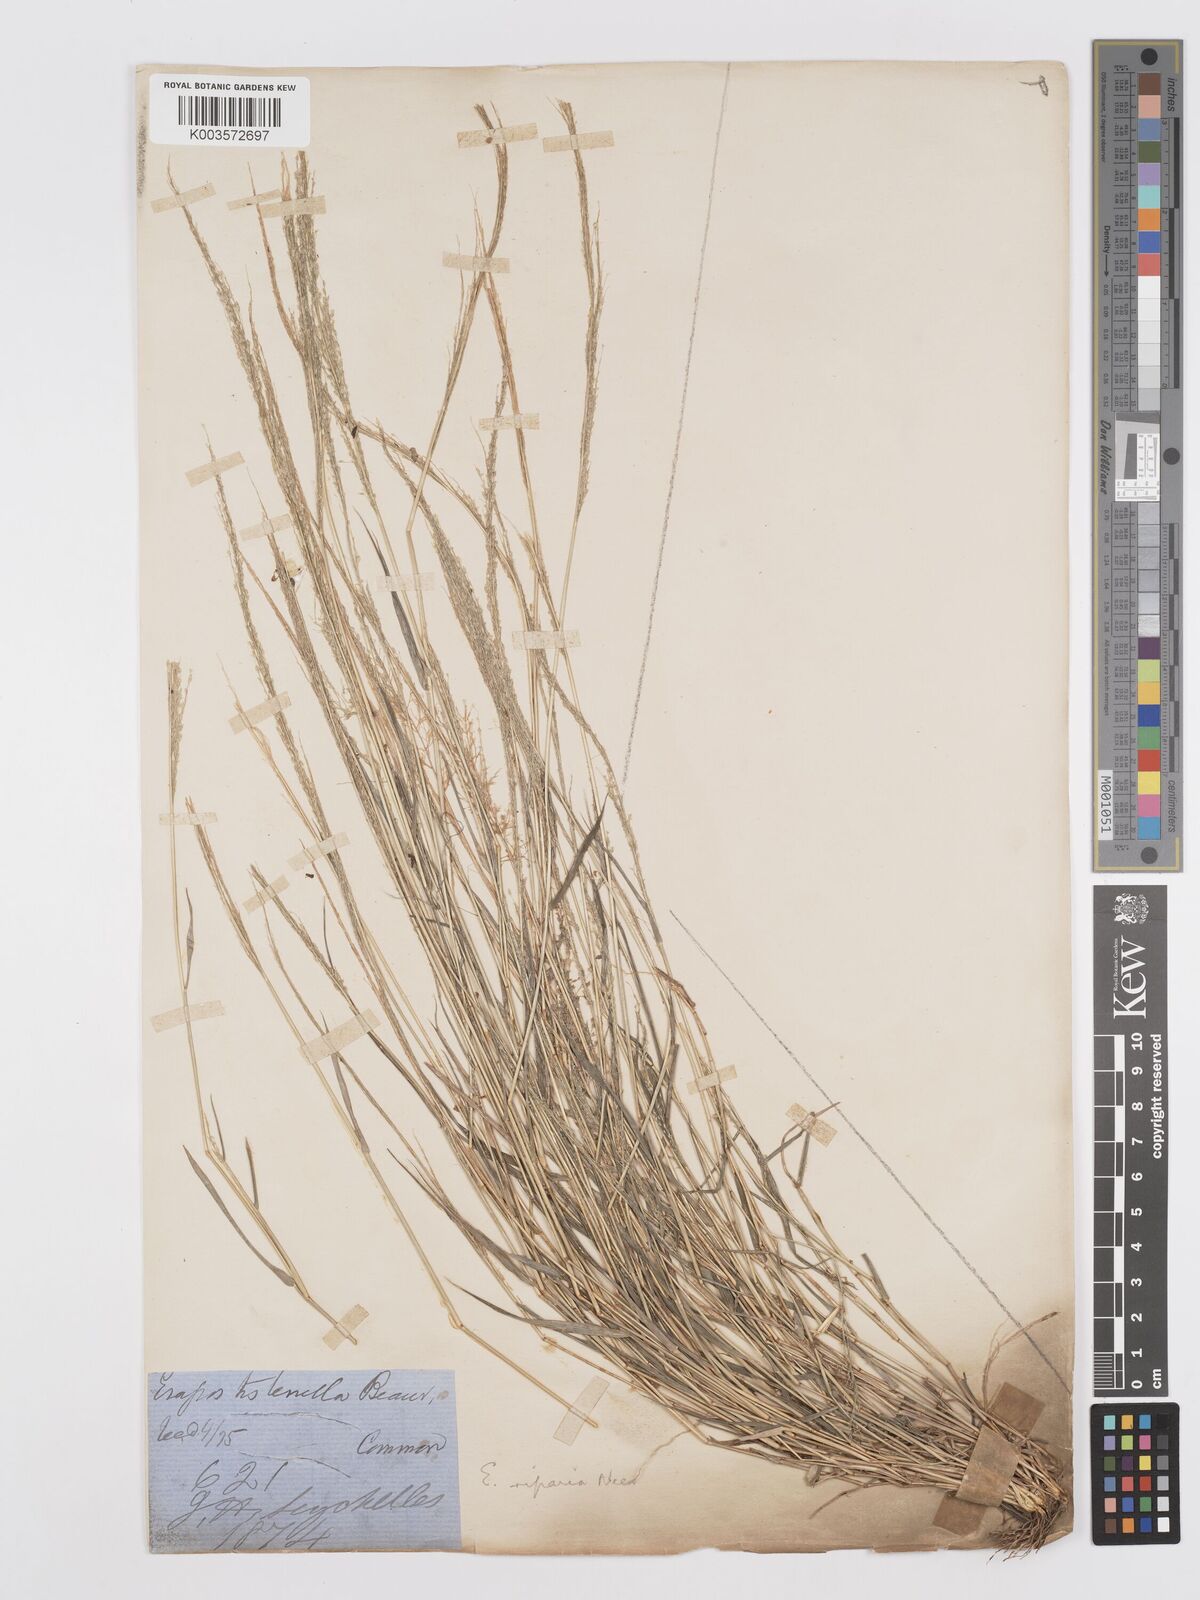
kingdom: Plantae
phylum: Tracheophyta
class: Liliopsida
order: Poales
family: Poaceae
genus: Eragrostis
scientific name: Eragrostis tenella
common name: Japanese lovegrass
